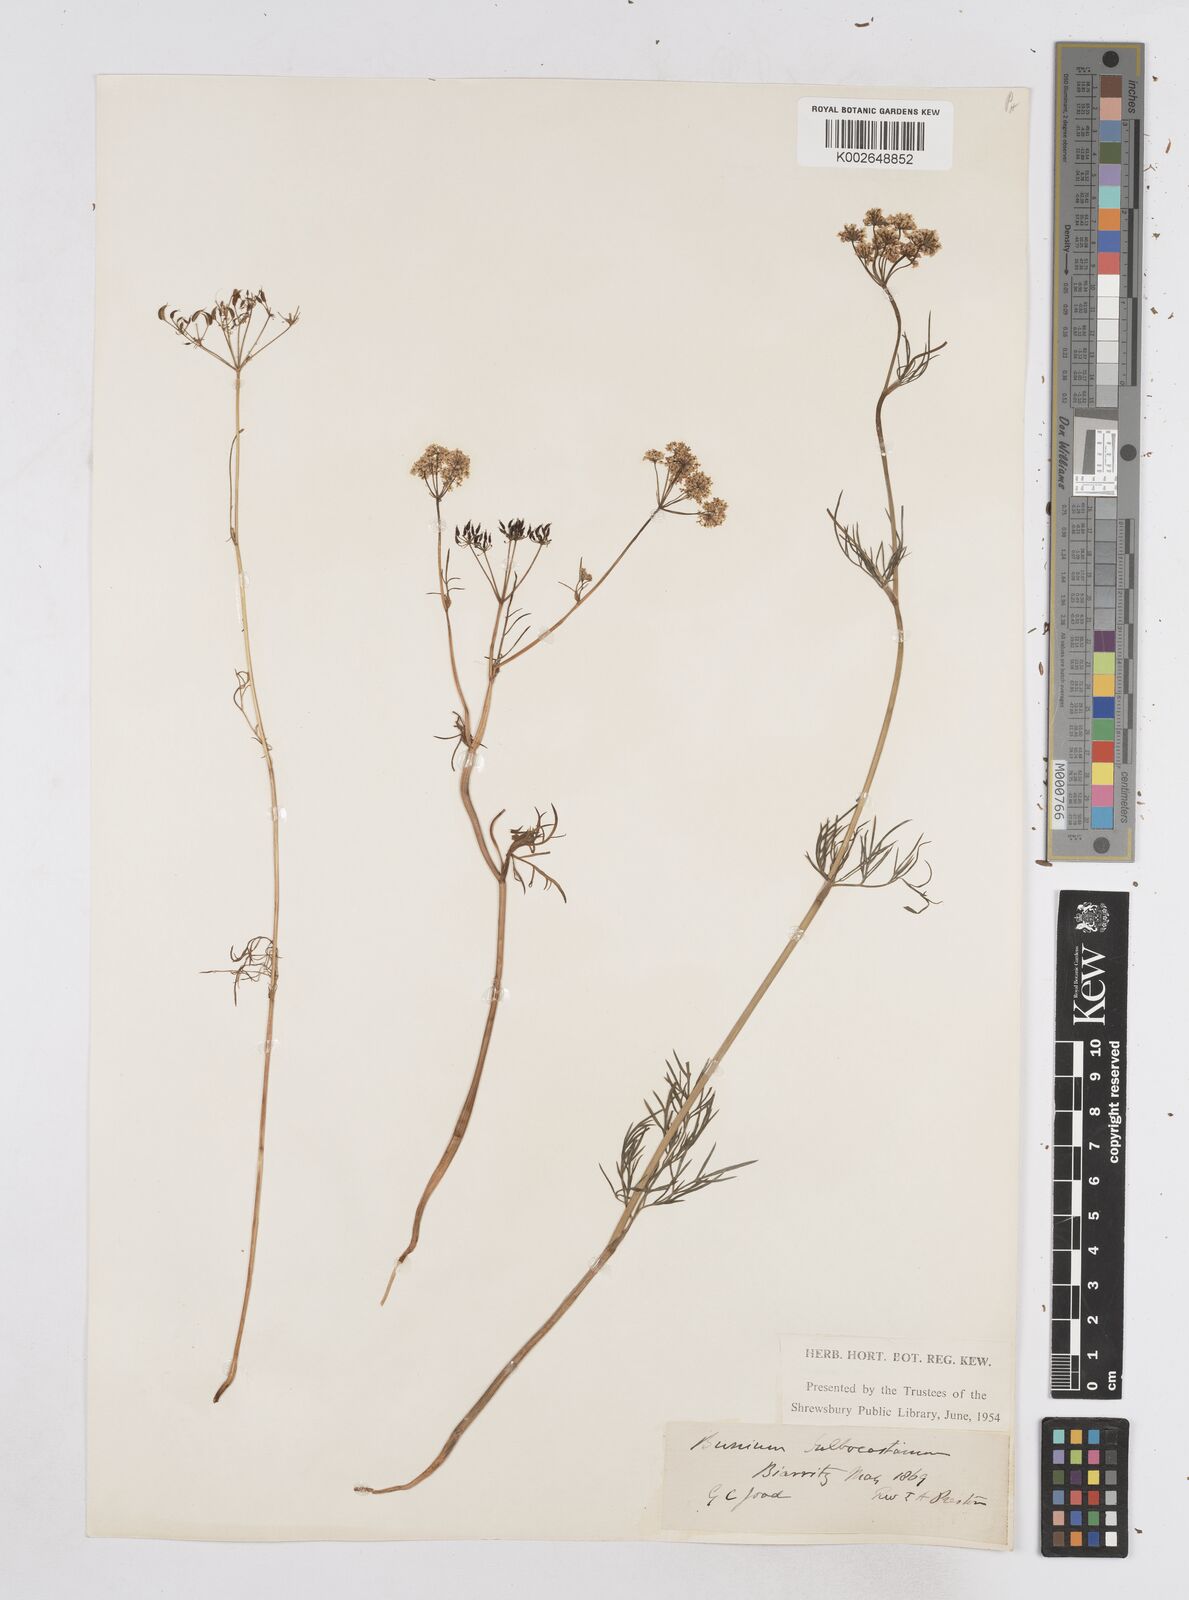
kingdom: Plantae
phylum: Tracheophyta
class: Magnoliopsida
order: Apiales
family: Apiaceae
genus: Bunium
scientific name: Bunium bulbocastanum
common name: Great pignut
